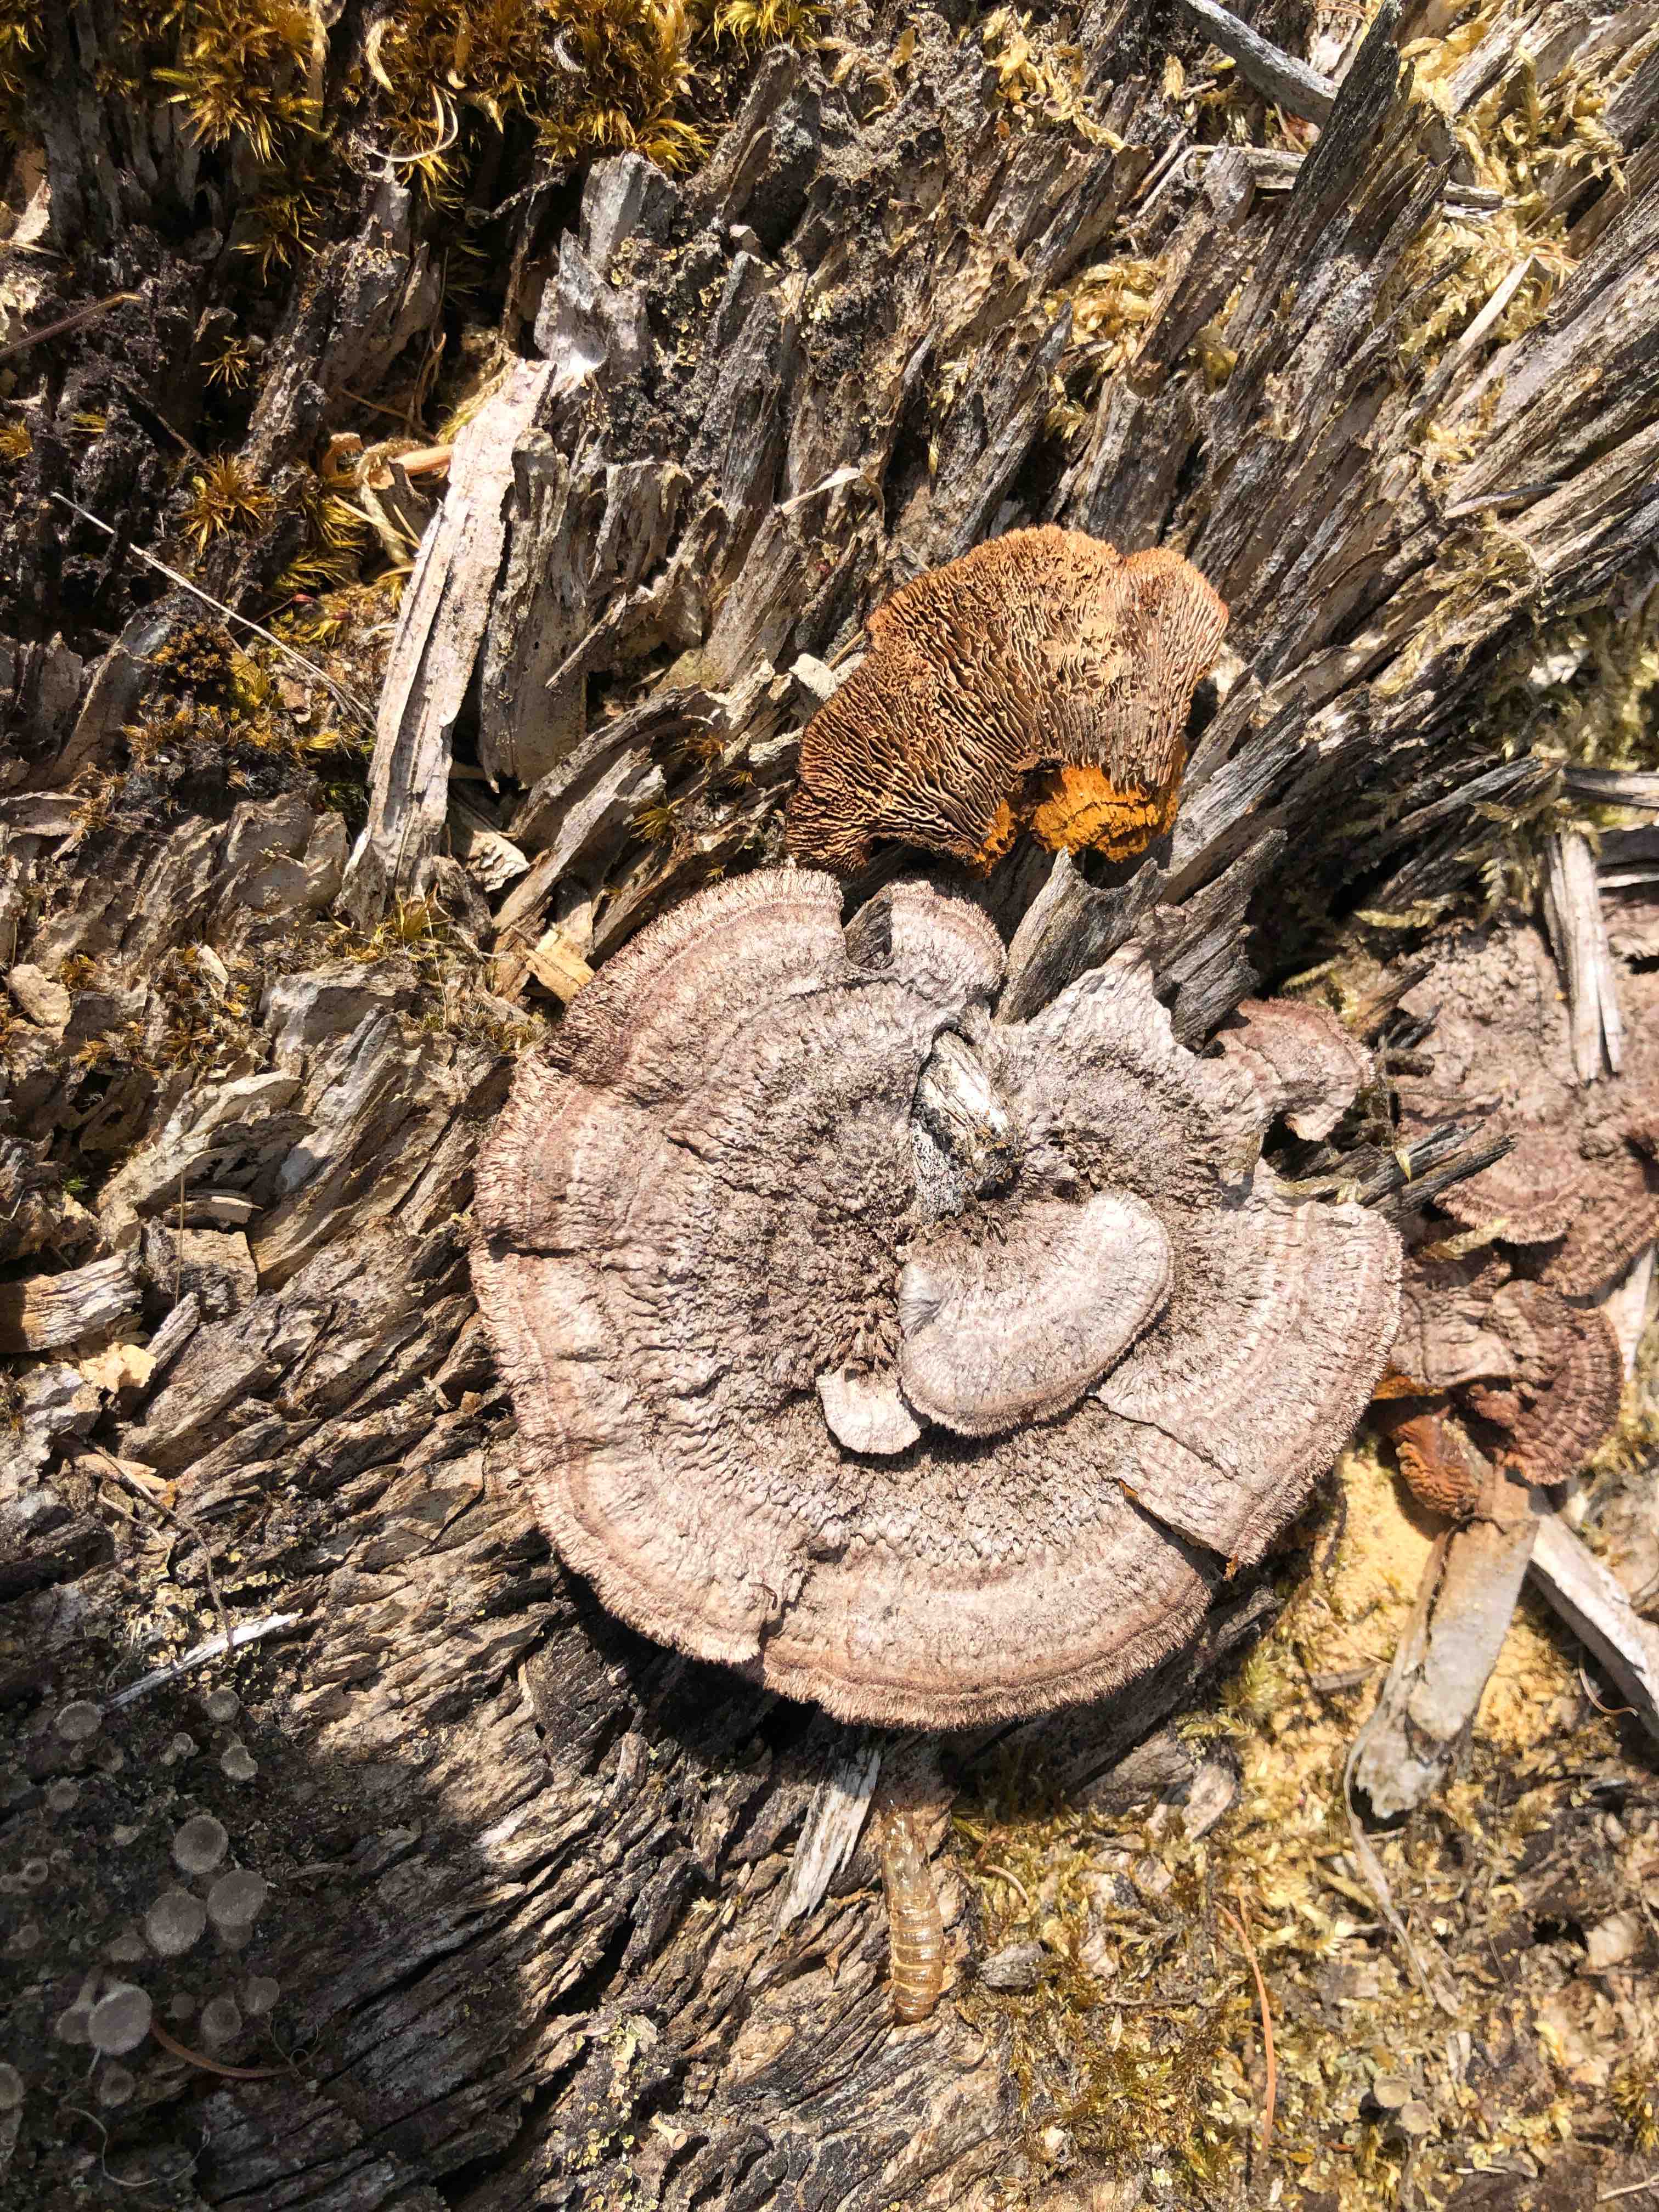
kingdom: Fungi
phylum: Basidiomycota
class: Agaricomycetes
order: Gloeophyllales
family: Gloeophyllaceae
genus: Gloeophyllum
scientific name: Gloeophyllum sepiarium
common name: fyrre-korkhat
